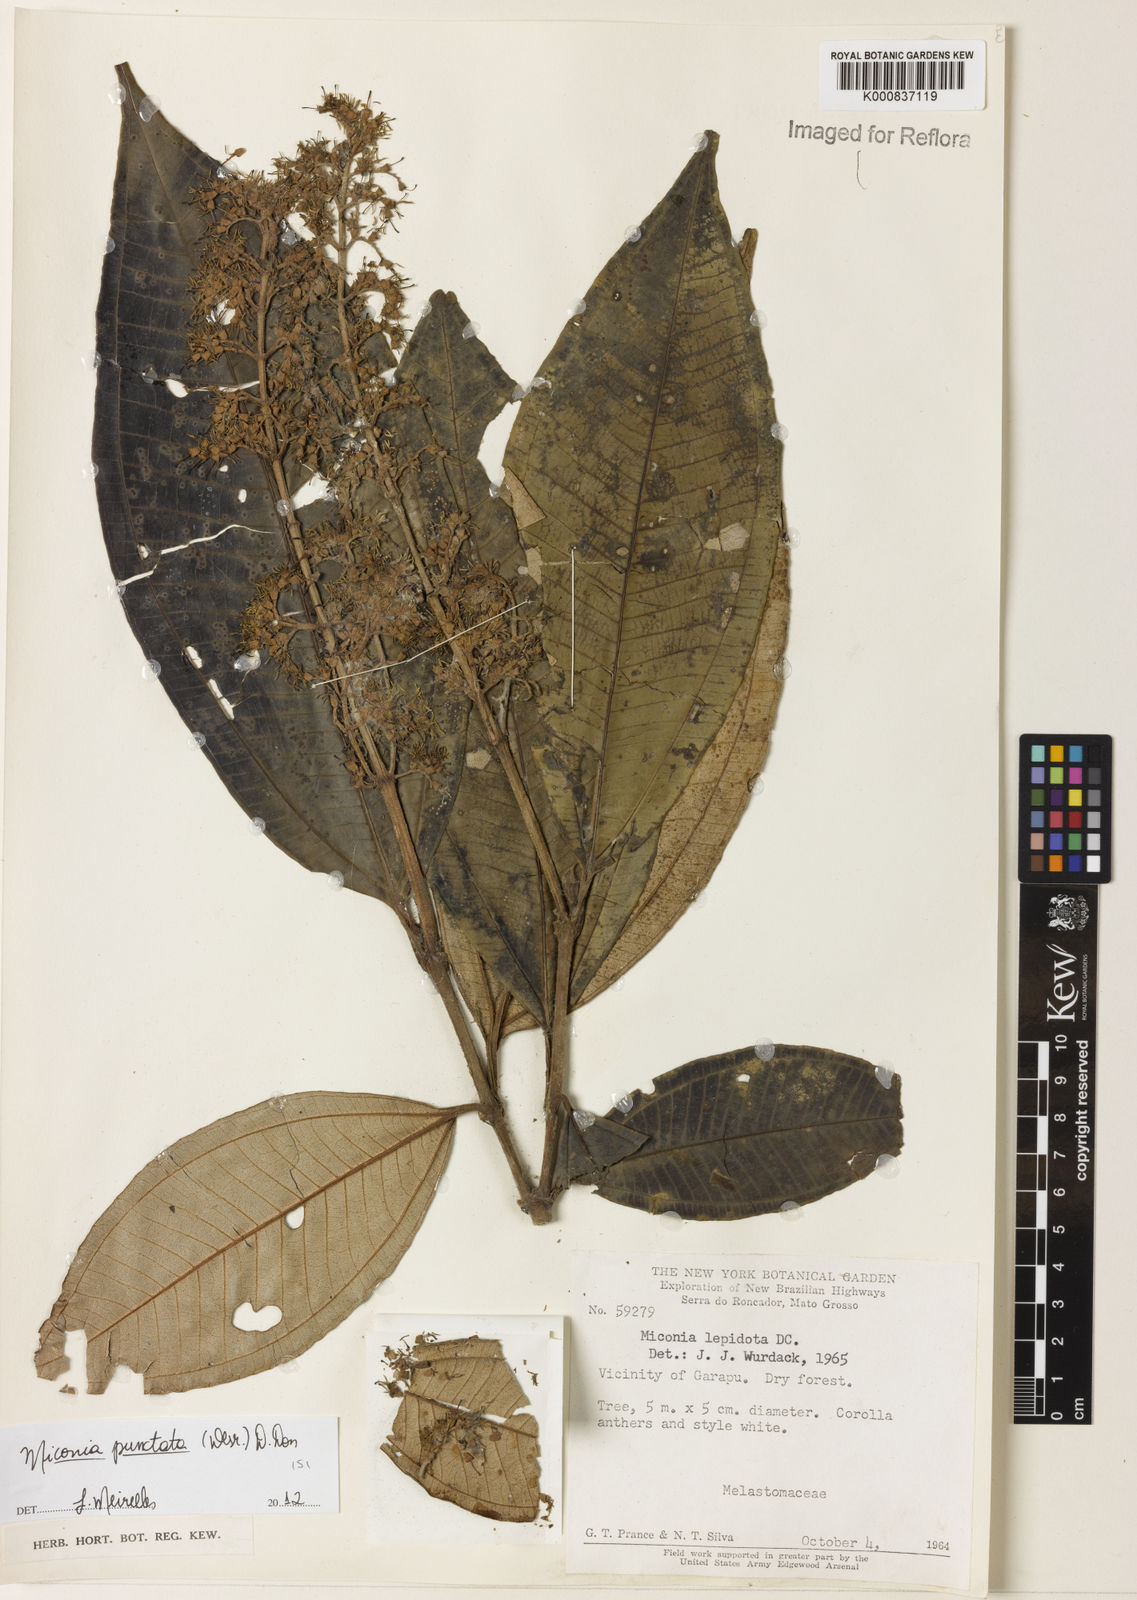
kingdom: Plantae
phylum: Tracheophyta
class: Magnoliopsida
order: Myrtales
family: Melastomataceae
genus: Miconia
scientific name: Miconia punctata
